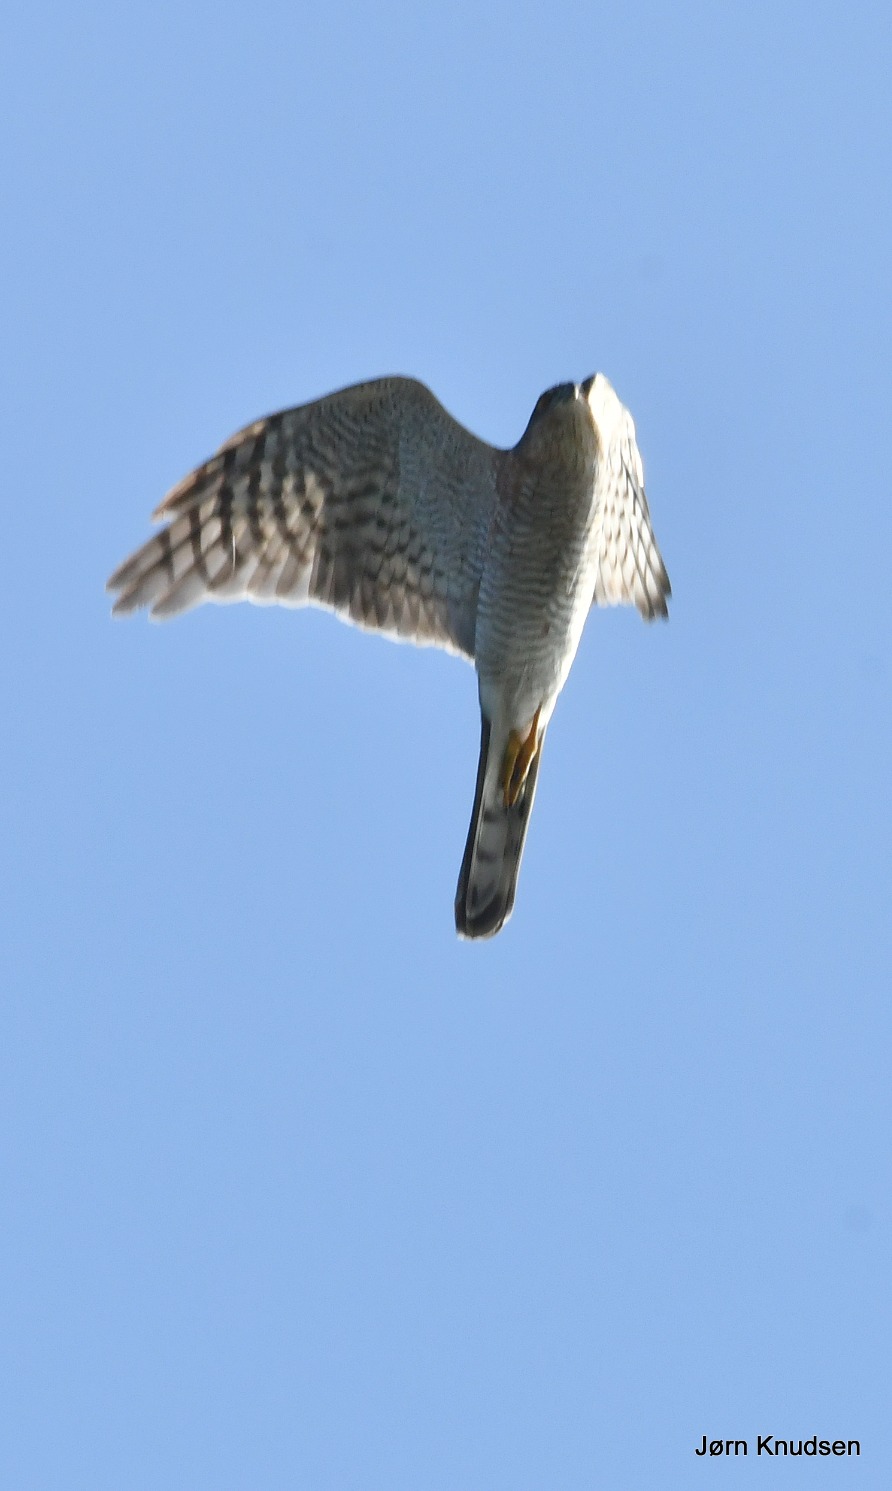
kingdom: Animalia
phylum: Chordata
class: Aves
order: Accipitriformes
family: Accipitridae
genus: Accipiter
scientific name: Accipiter nisus
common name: Spurvehøg
